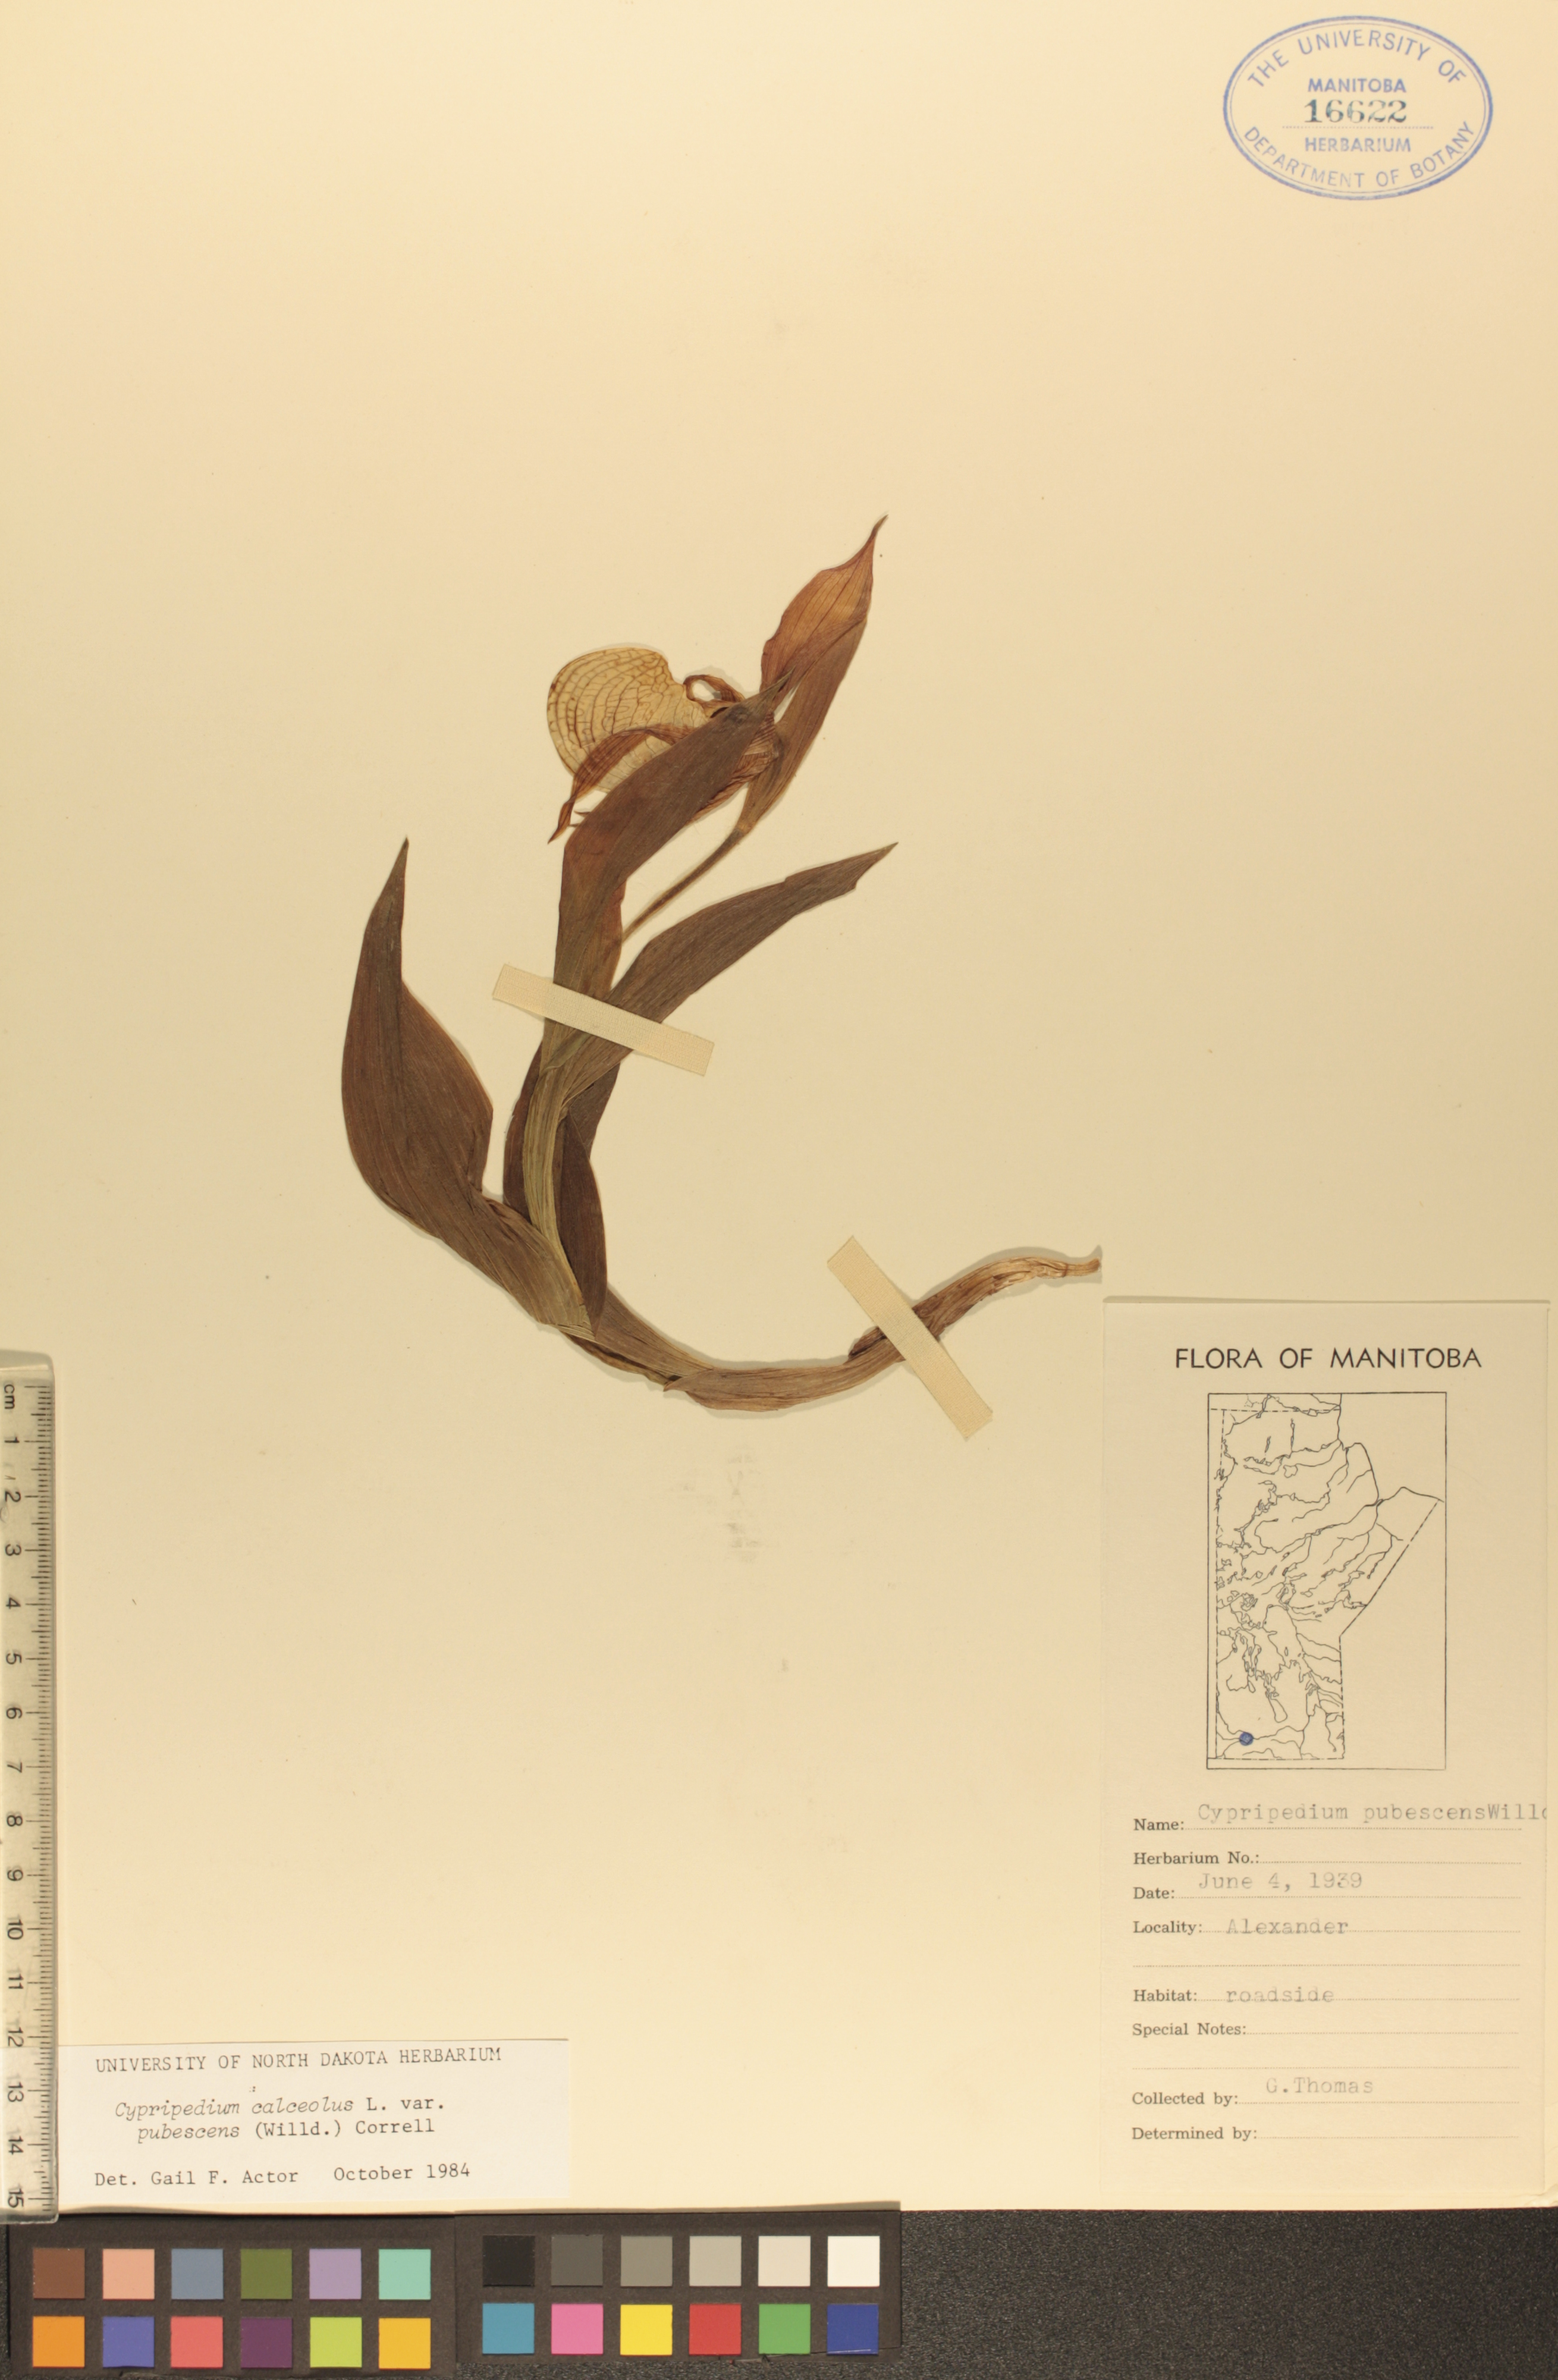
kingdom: Plantae
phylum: Tracheophyta
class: Liliopsida
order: Asparagales
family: Orchidaceae
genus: Cypripedium
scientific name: Cypripedium parviflorum
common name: American yellow lady's-slipper
